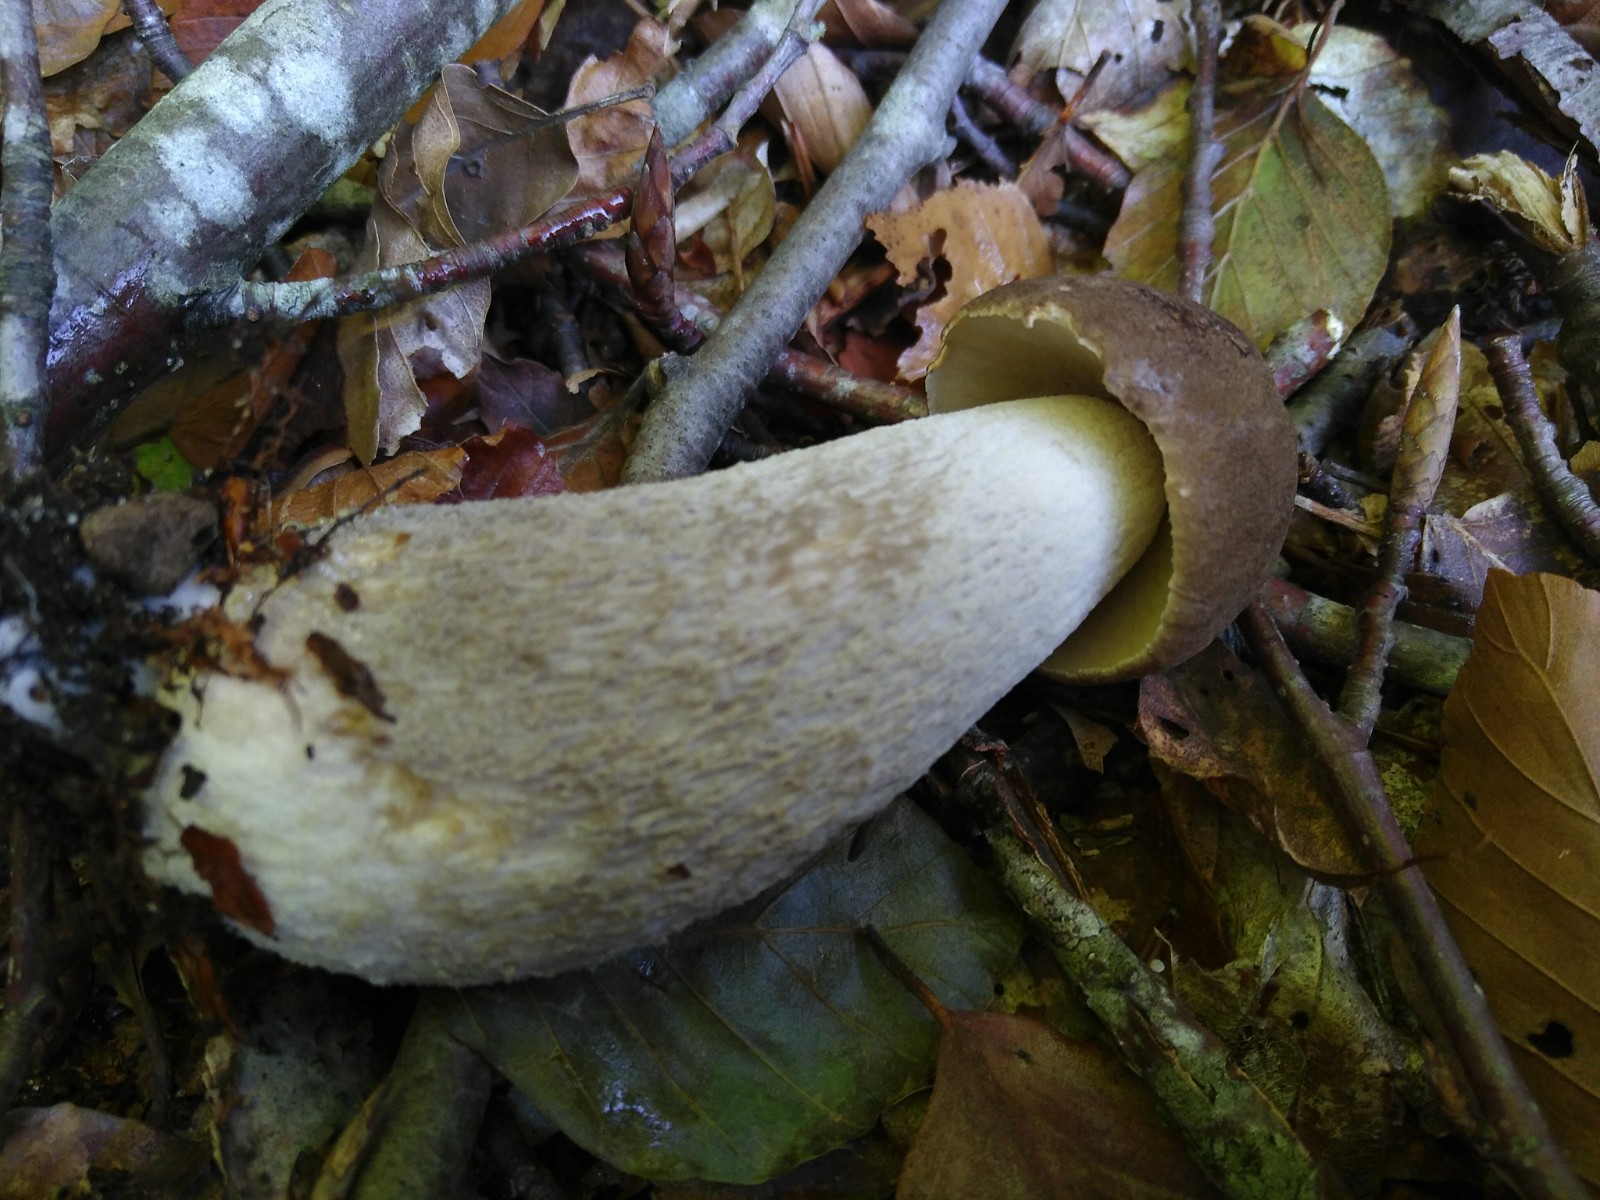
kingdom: Fungi
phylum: Basidiomycota
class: Agaricomycetes
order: Boletales
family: Boletaceae
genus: Leccinum
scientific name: Leccinum
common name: skælrørhat
